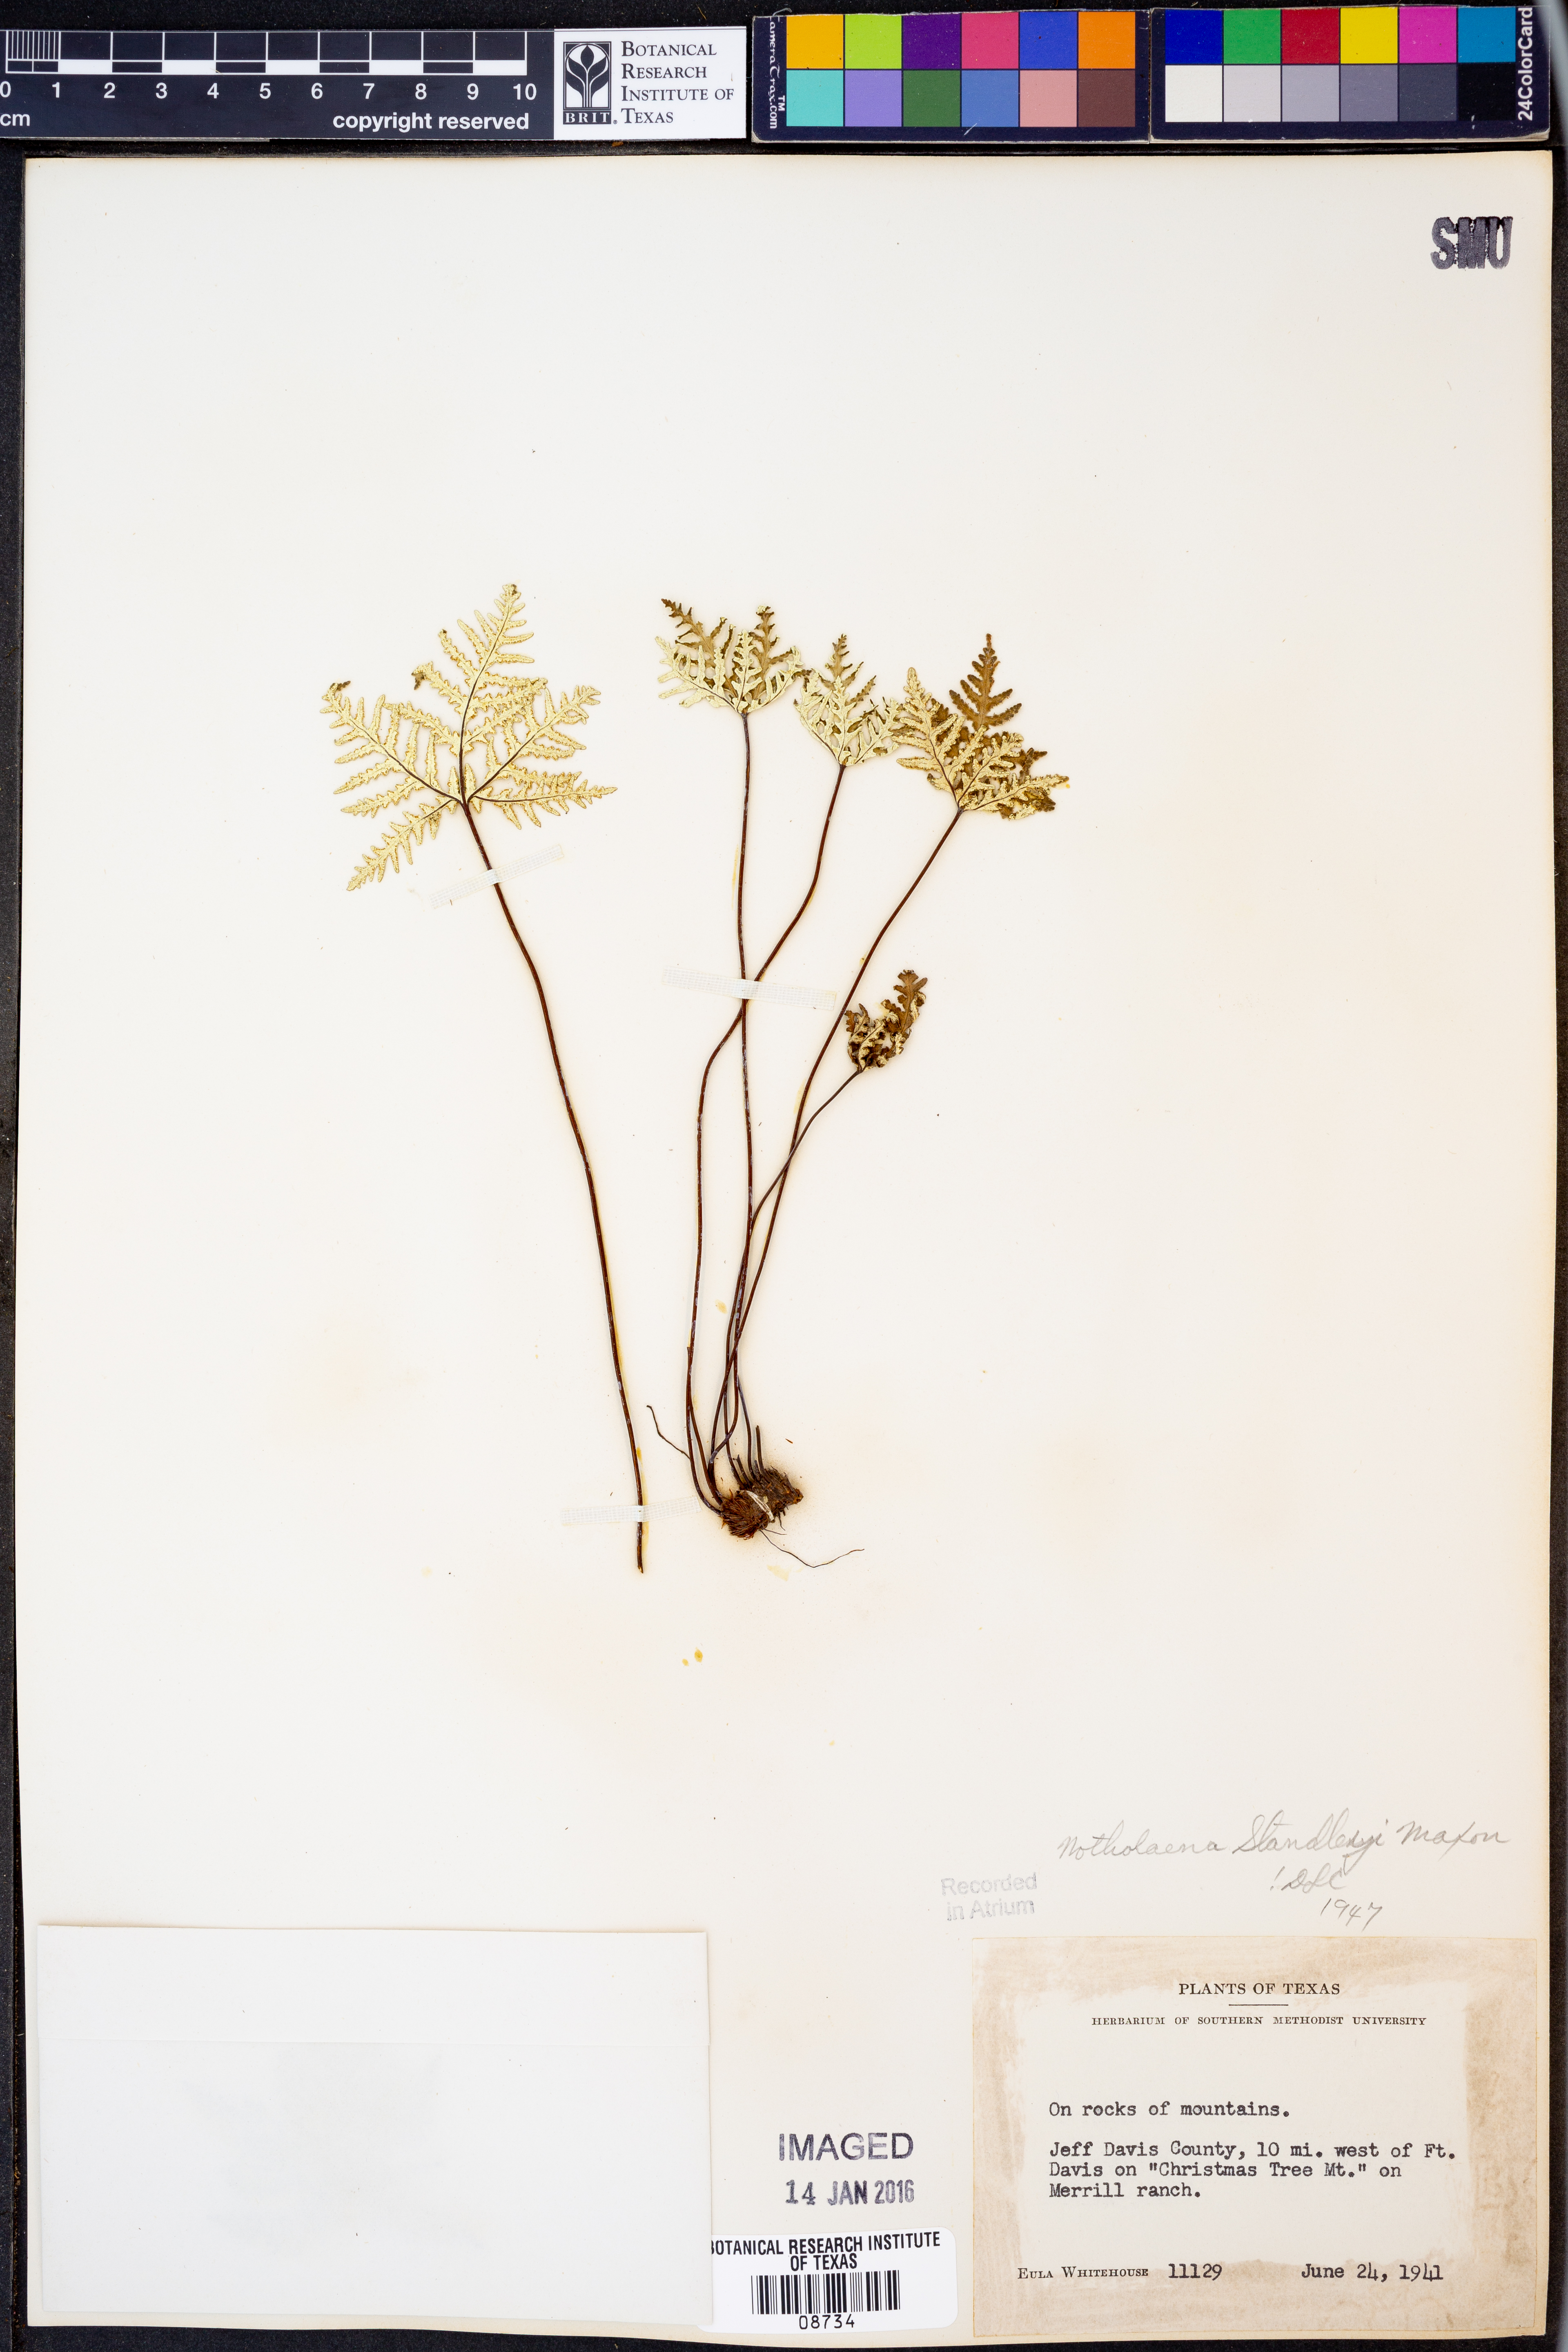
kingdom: Plantae
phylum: Tracheophyta
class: Polypodiopsida
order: Polypodiales
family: Pteridaceae
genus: Notholaena
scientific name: Notholaena standleyi
